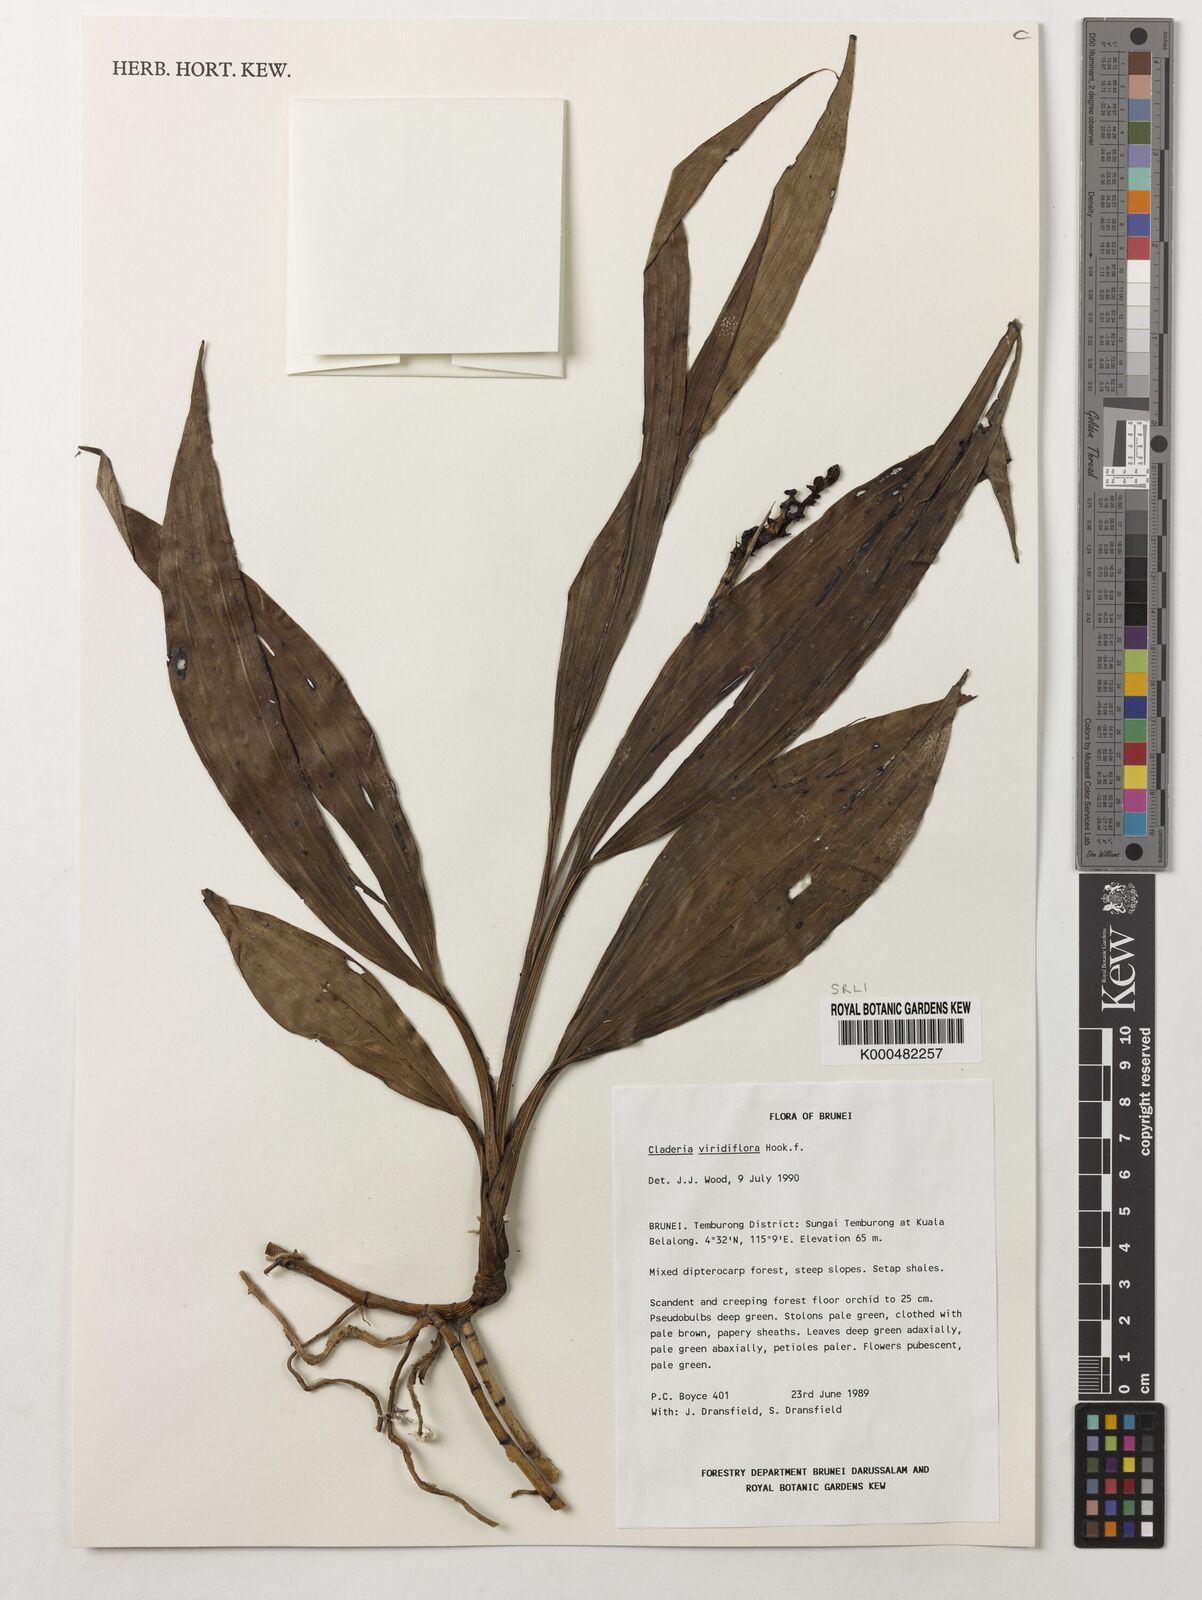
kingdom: Plantae
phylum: Tracheophyta
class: Liliopsida
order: Asparagales
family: Orchidaceae
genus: Claderia
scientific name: Claderia
